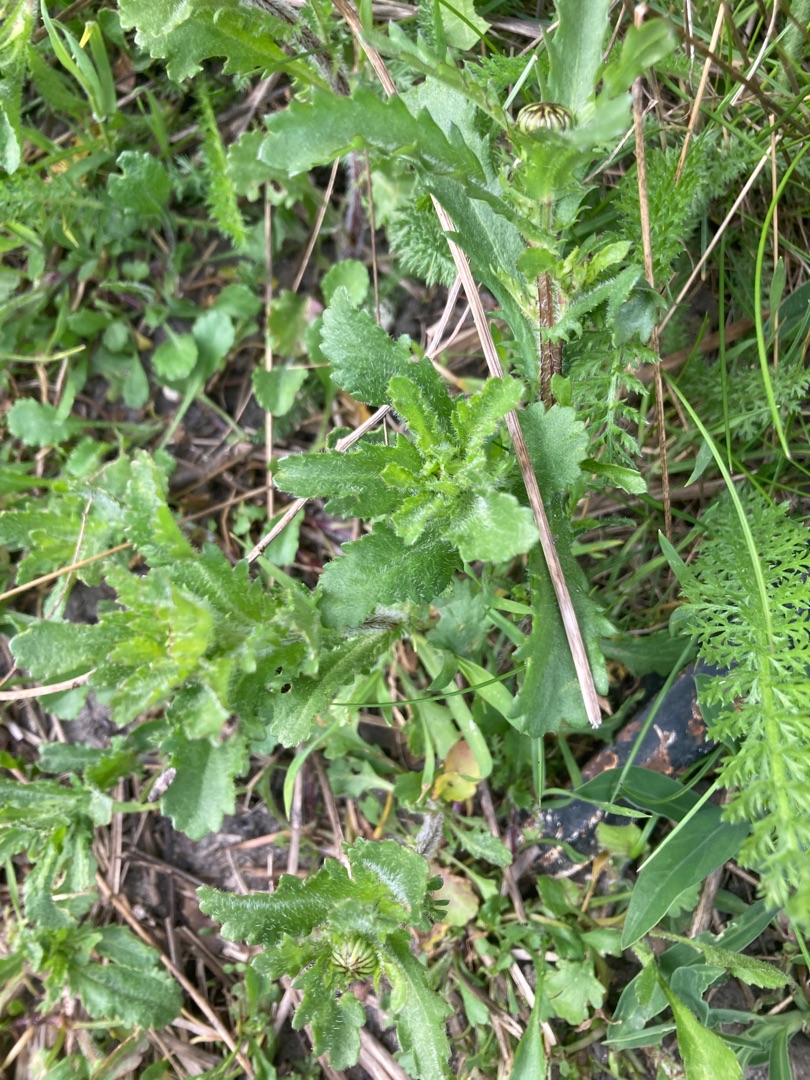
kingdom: Plantae
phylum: Tracheophyta
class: Magnoliopsida
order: Asterales
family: Asteraceae
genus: Leucanthemum
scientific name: Leucanthemum vulgare
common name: Hvid okseøje
